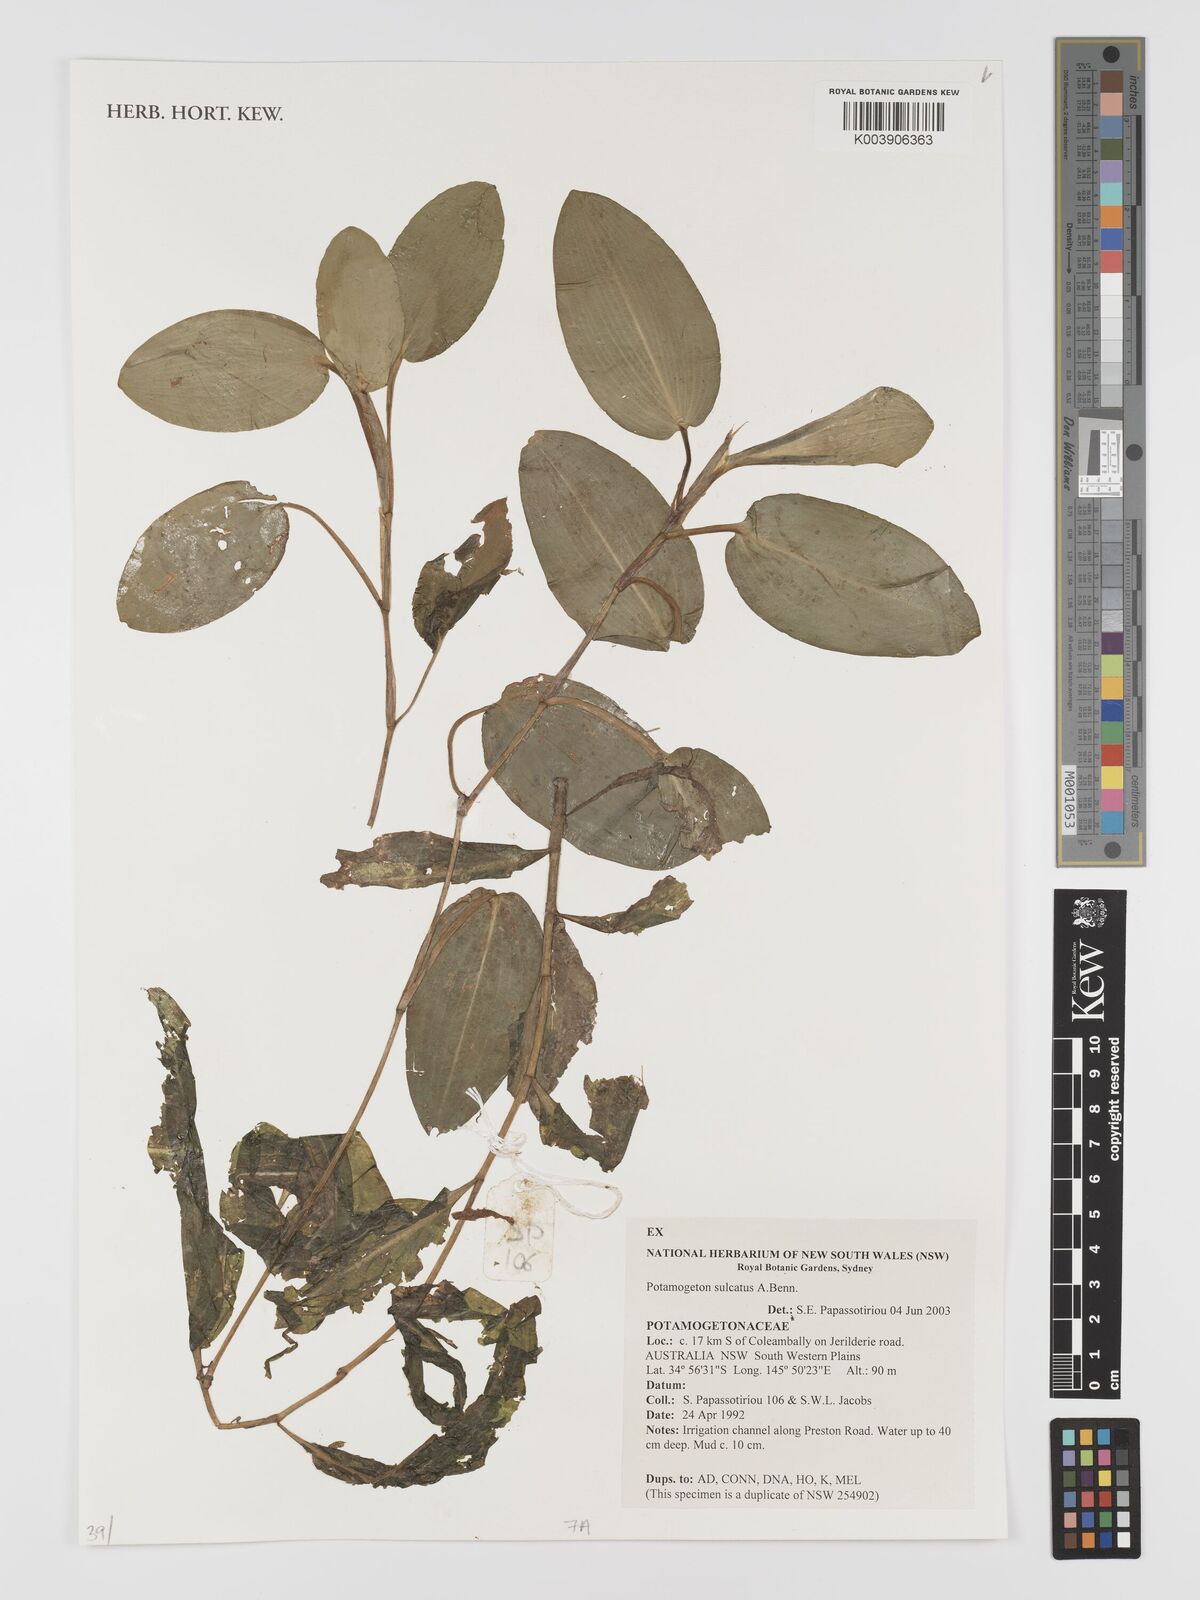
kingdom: Plantae
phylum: Tracheophyta
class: Liliopsida
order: Alismatales
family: Potamogetonaceae
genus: Potamogeton
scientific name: Potamogeton sulcatus
